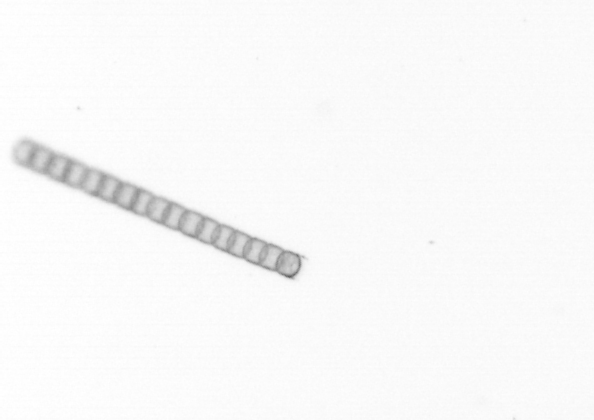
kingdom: Chromista
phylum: Ochrophyta
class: Bacillariophyceae
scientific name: Bacillariophyceae
